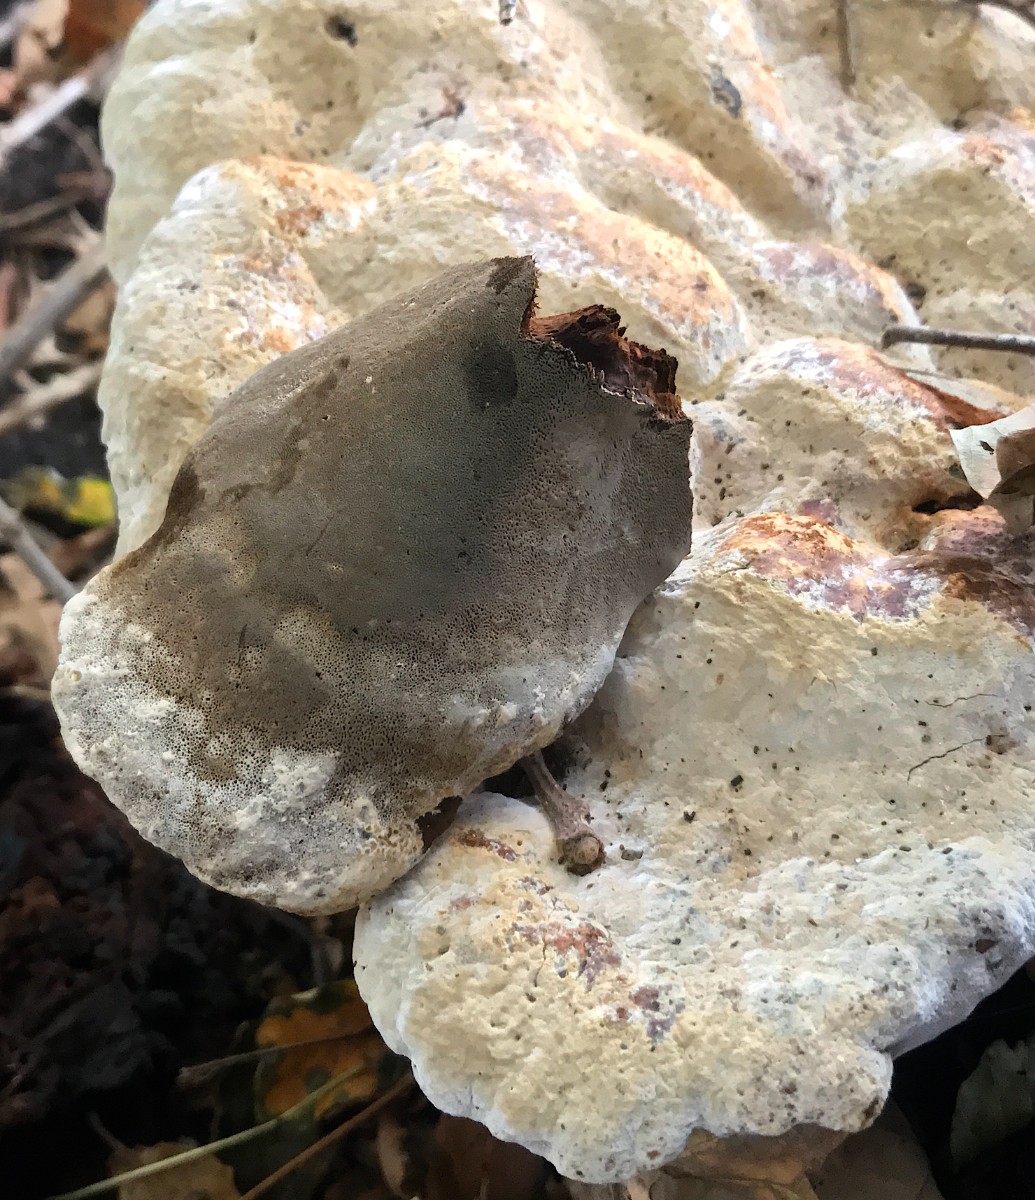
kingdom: Fungi
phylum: Basidiomycota
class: Agaricomycetes
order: Hymenochaetales
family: Hymenochaetaceae
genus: Pseudoinonotus
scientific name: Pseudoinonotus dryadeus
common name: ege-spejlporesvamp
